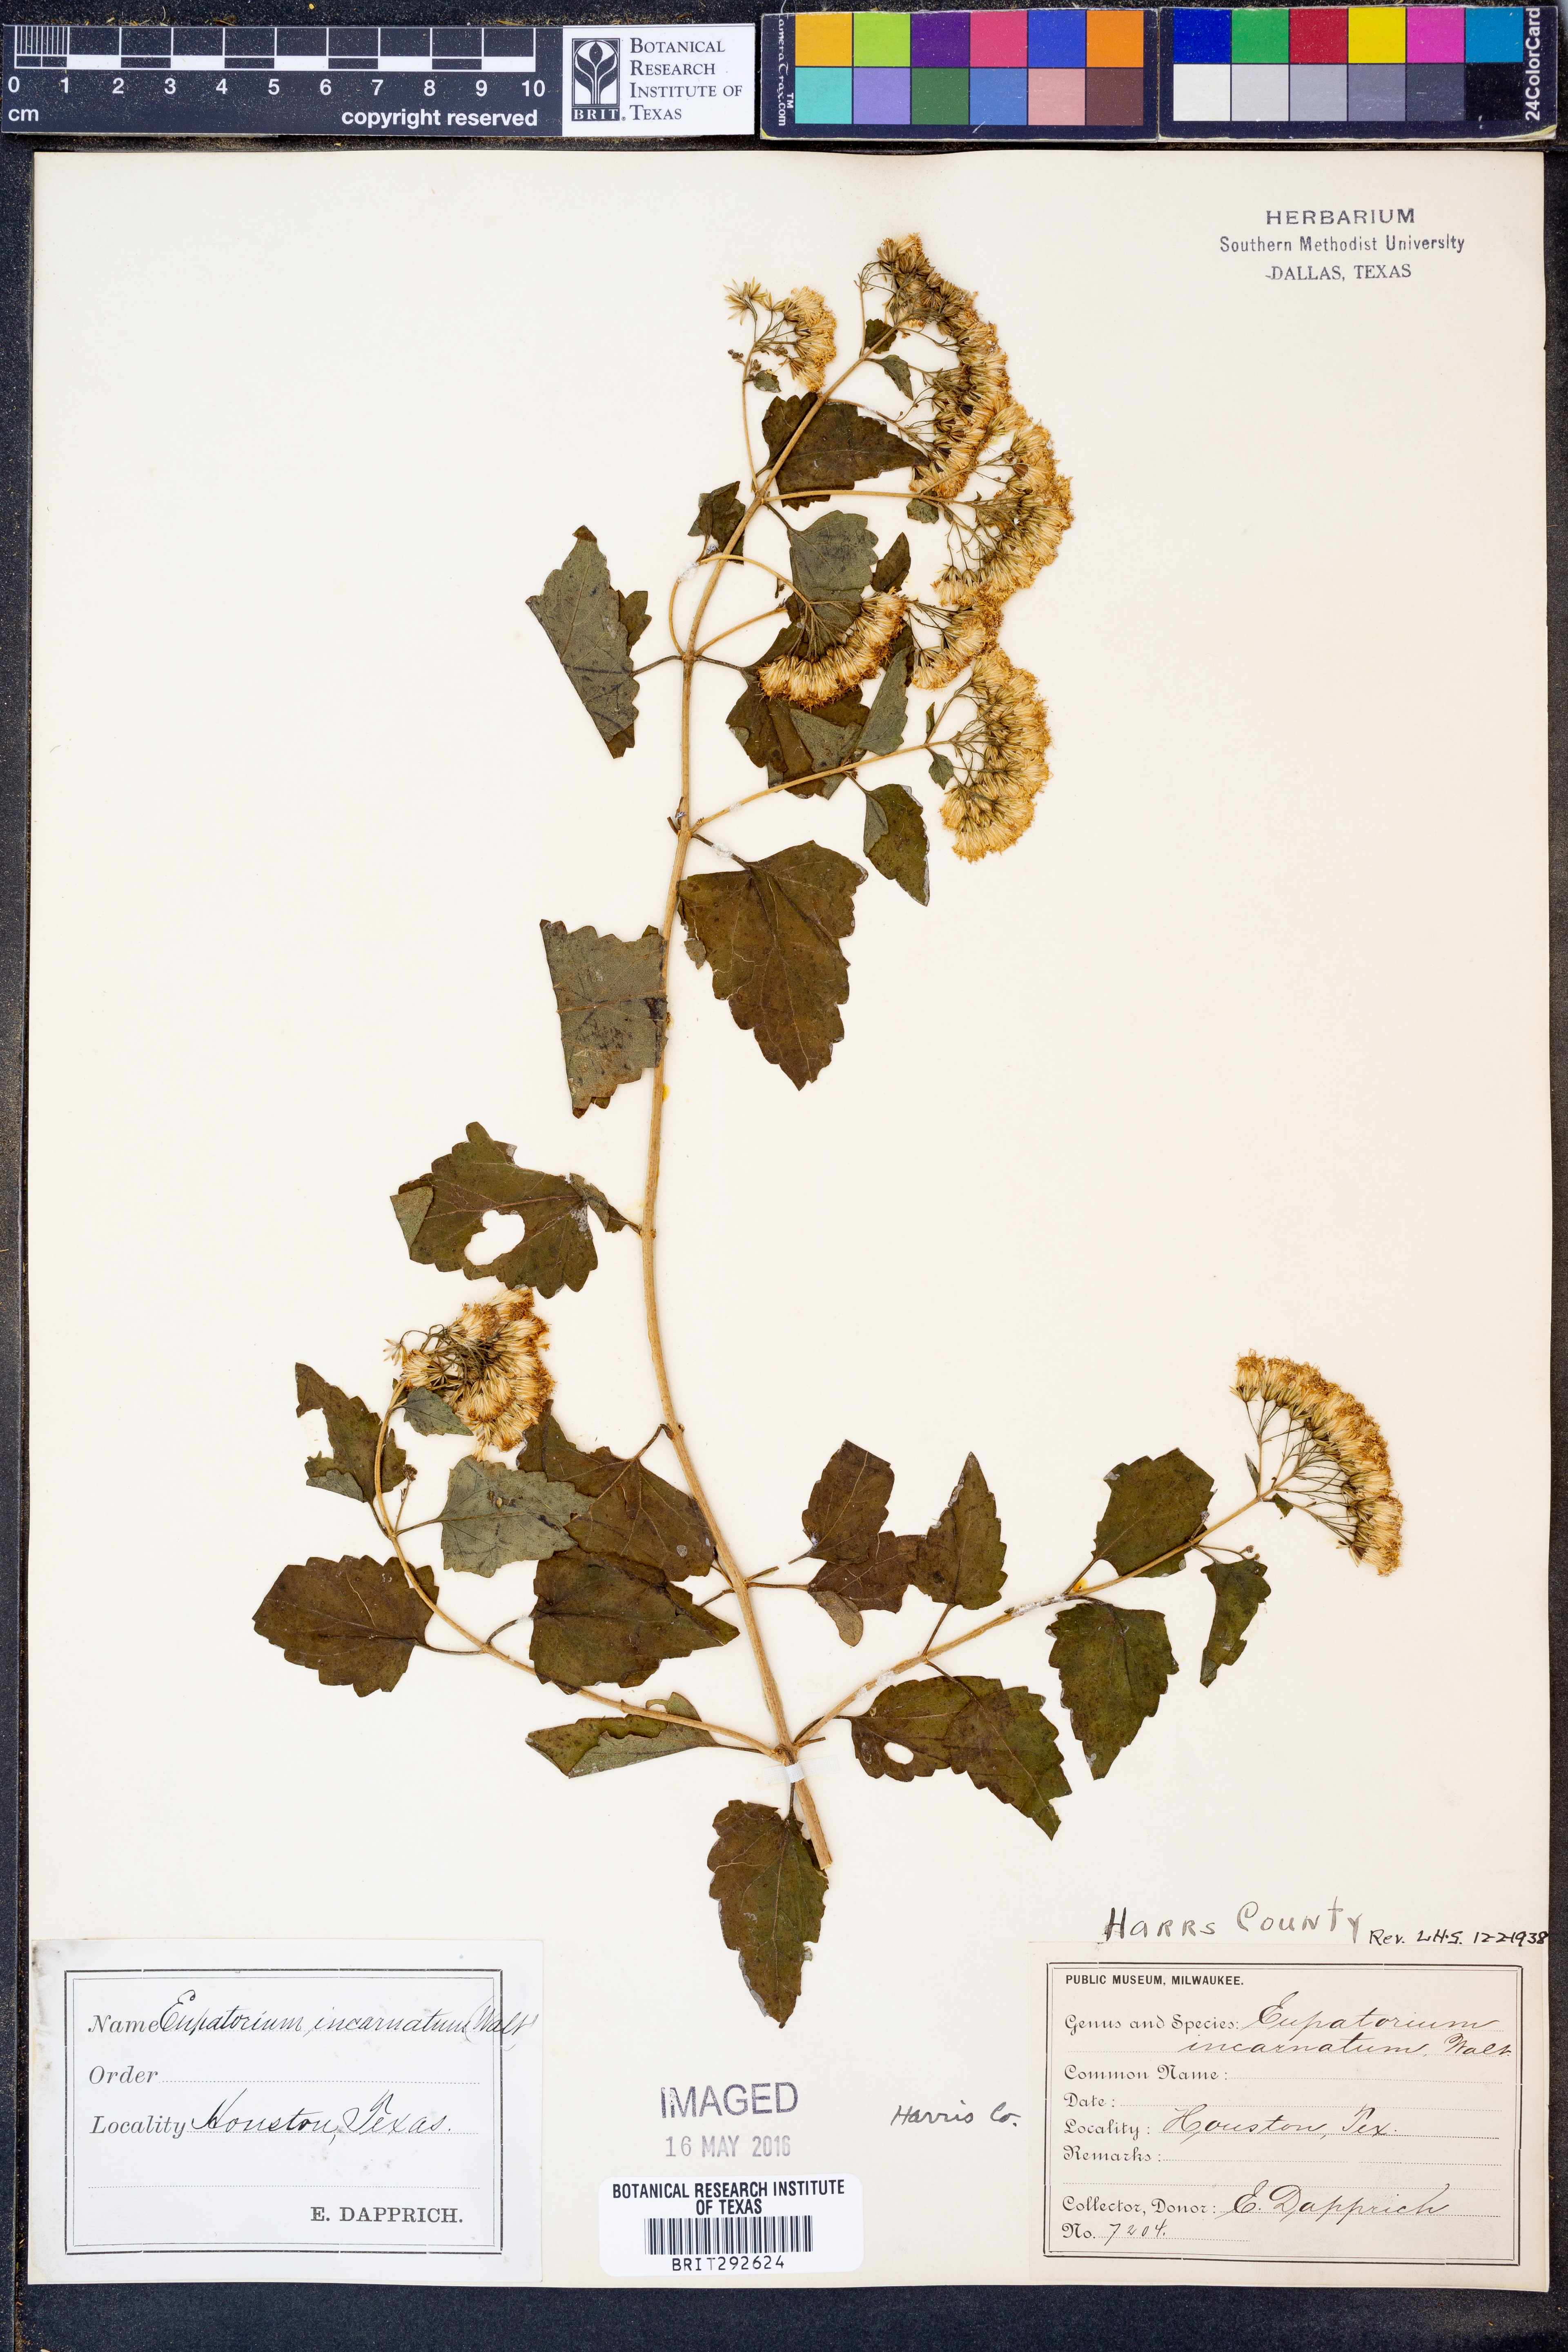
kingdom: Plantae
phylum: Tracheophyta
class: Magnoliopsida
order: Asterales
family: Asteraceae
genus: Fleischmannia
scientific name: Fleischmannia incarnata
